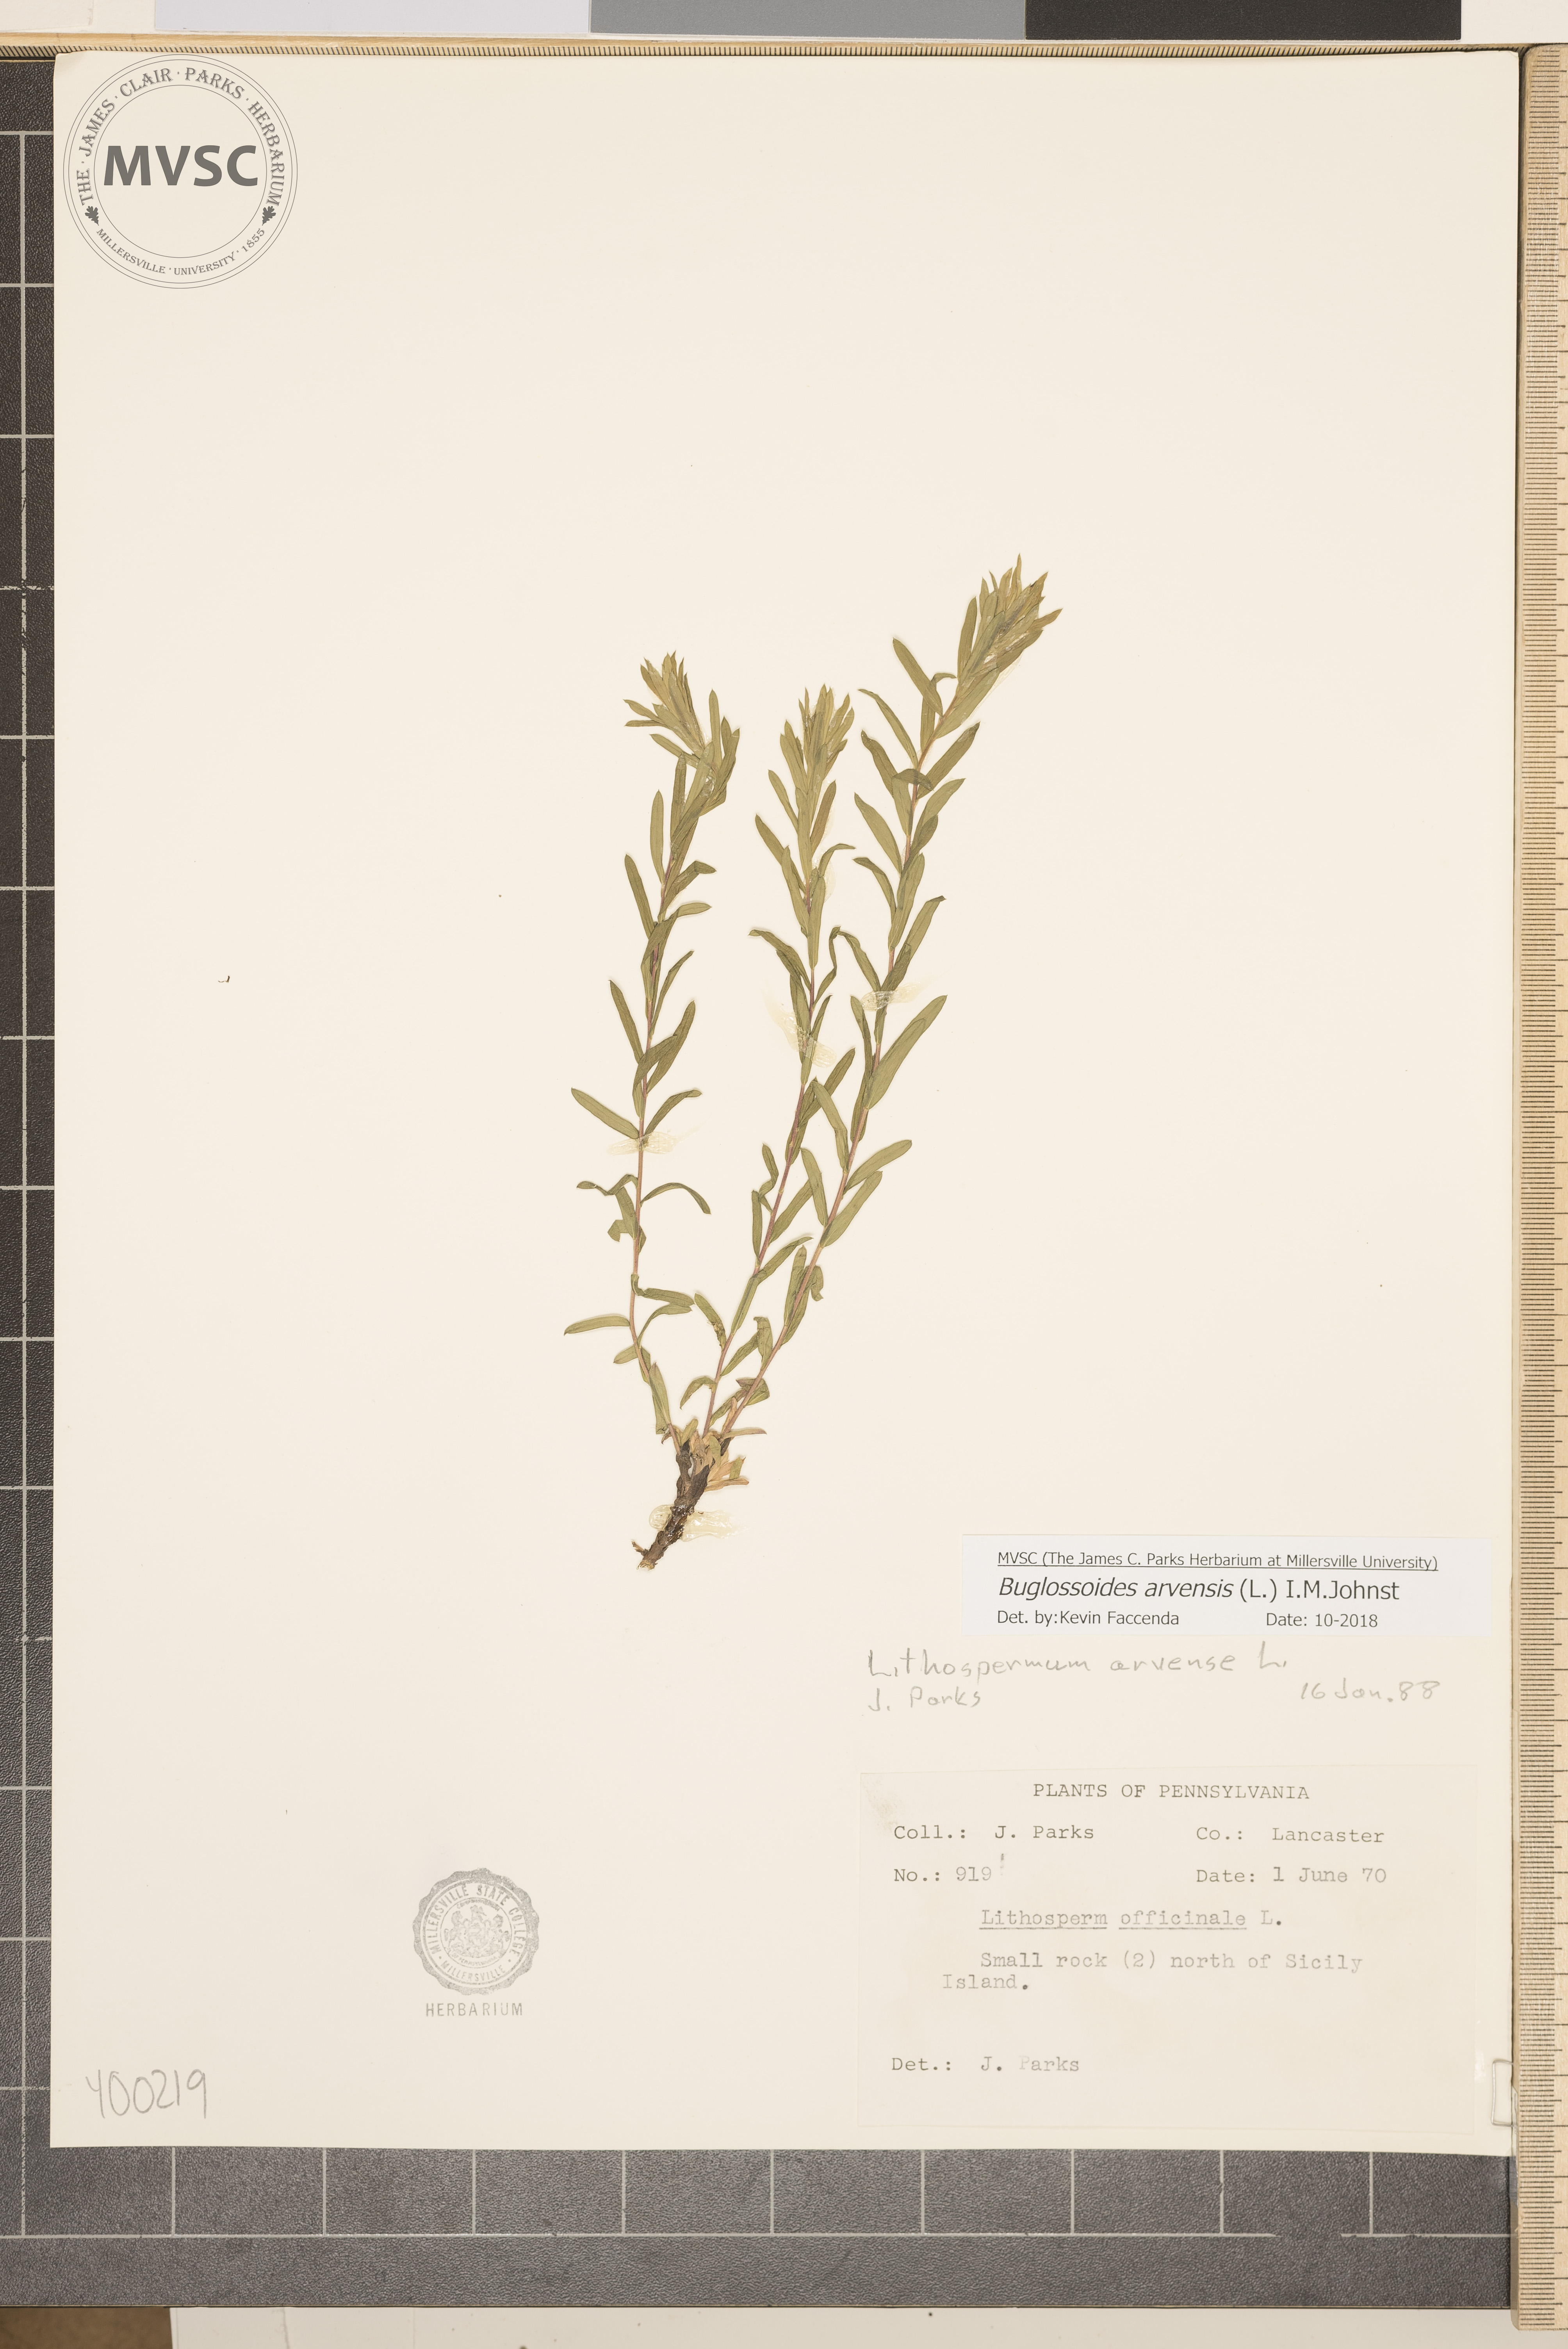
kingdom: Plantae
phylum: Tracheophyta
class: Magnoliopsida
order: Boraginales
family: Boraginaceae
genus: Buglossoides
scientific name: Buglossoides arvensis
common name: Corn gromwell
